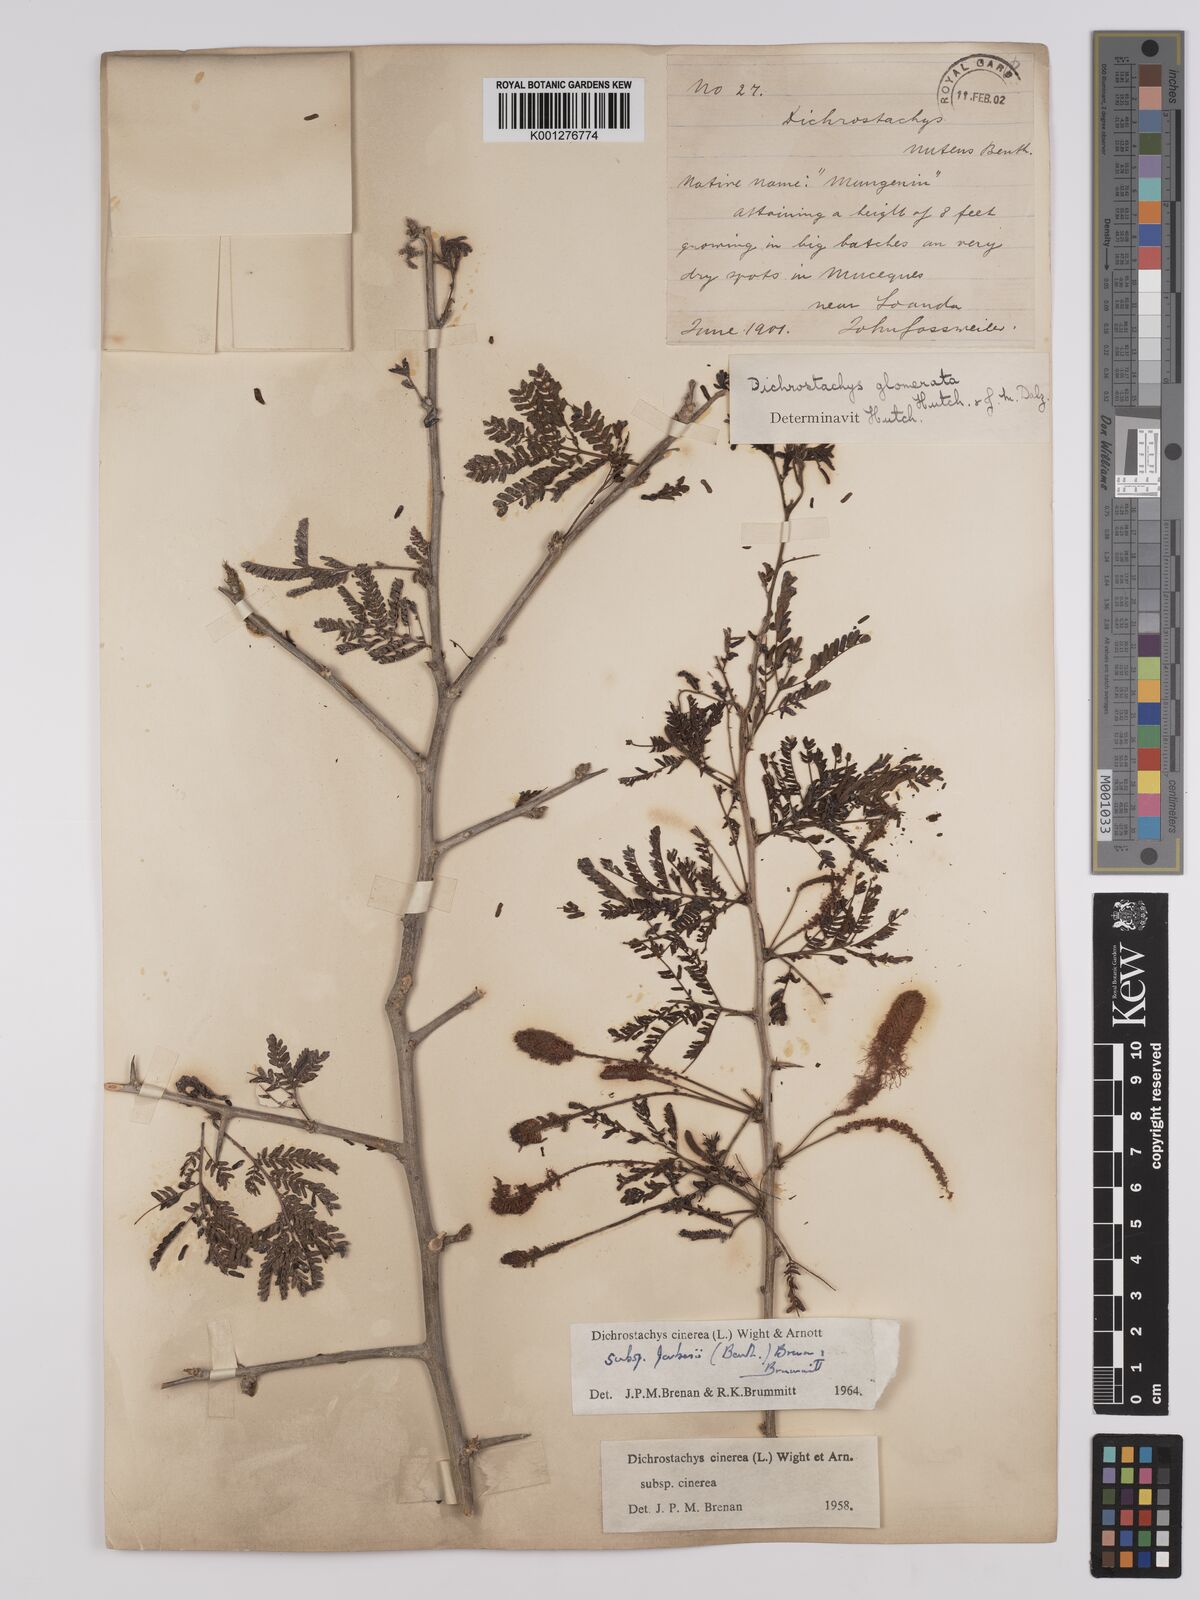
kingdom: Plantae
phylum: Tracheophyta
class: Magnoliopsida
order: Fabales
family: Fabaceae
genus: Dichrostachys
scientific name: Dichrostachys cinerea
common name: Sicklebush
